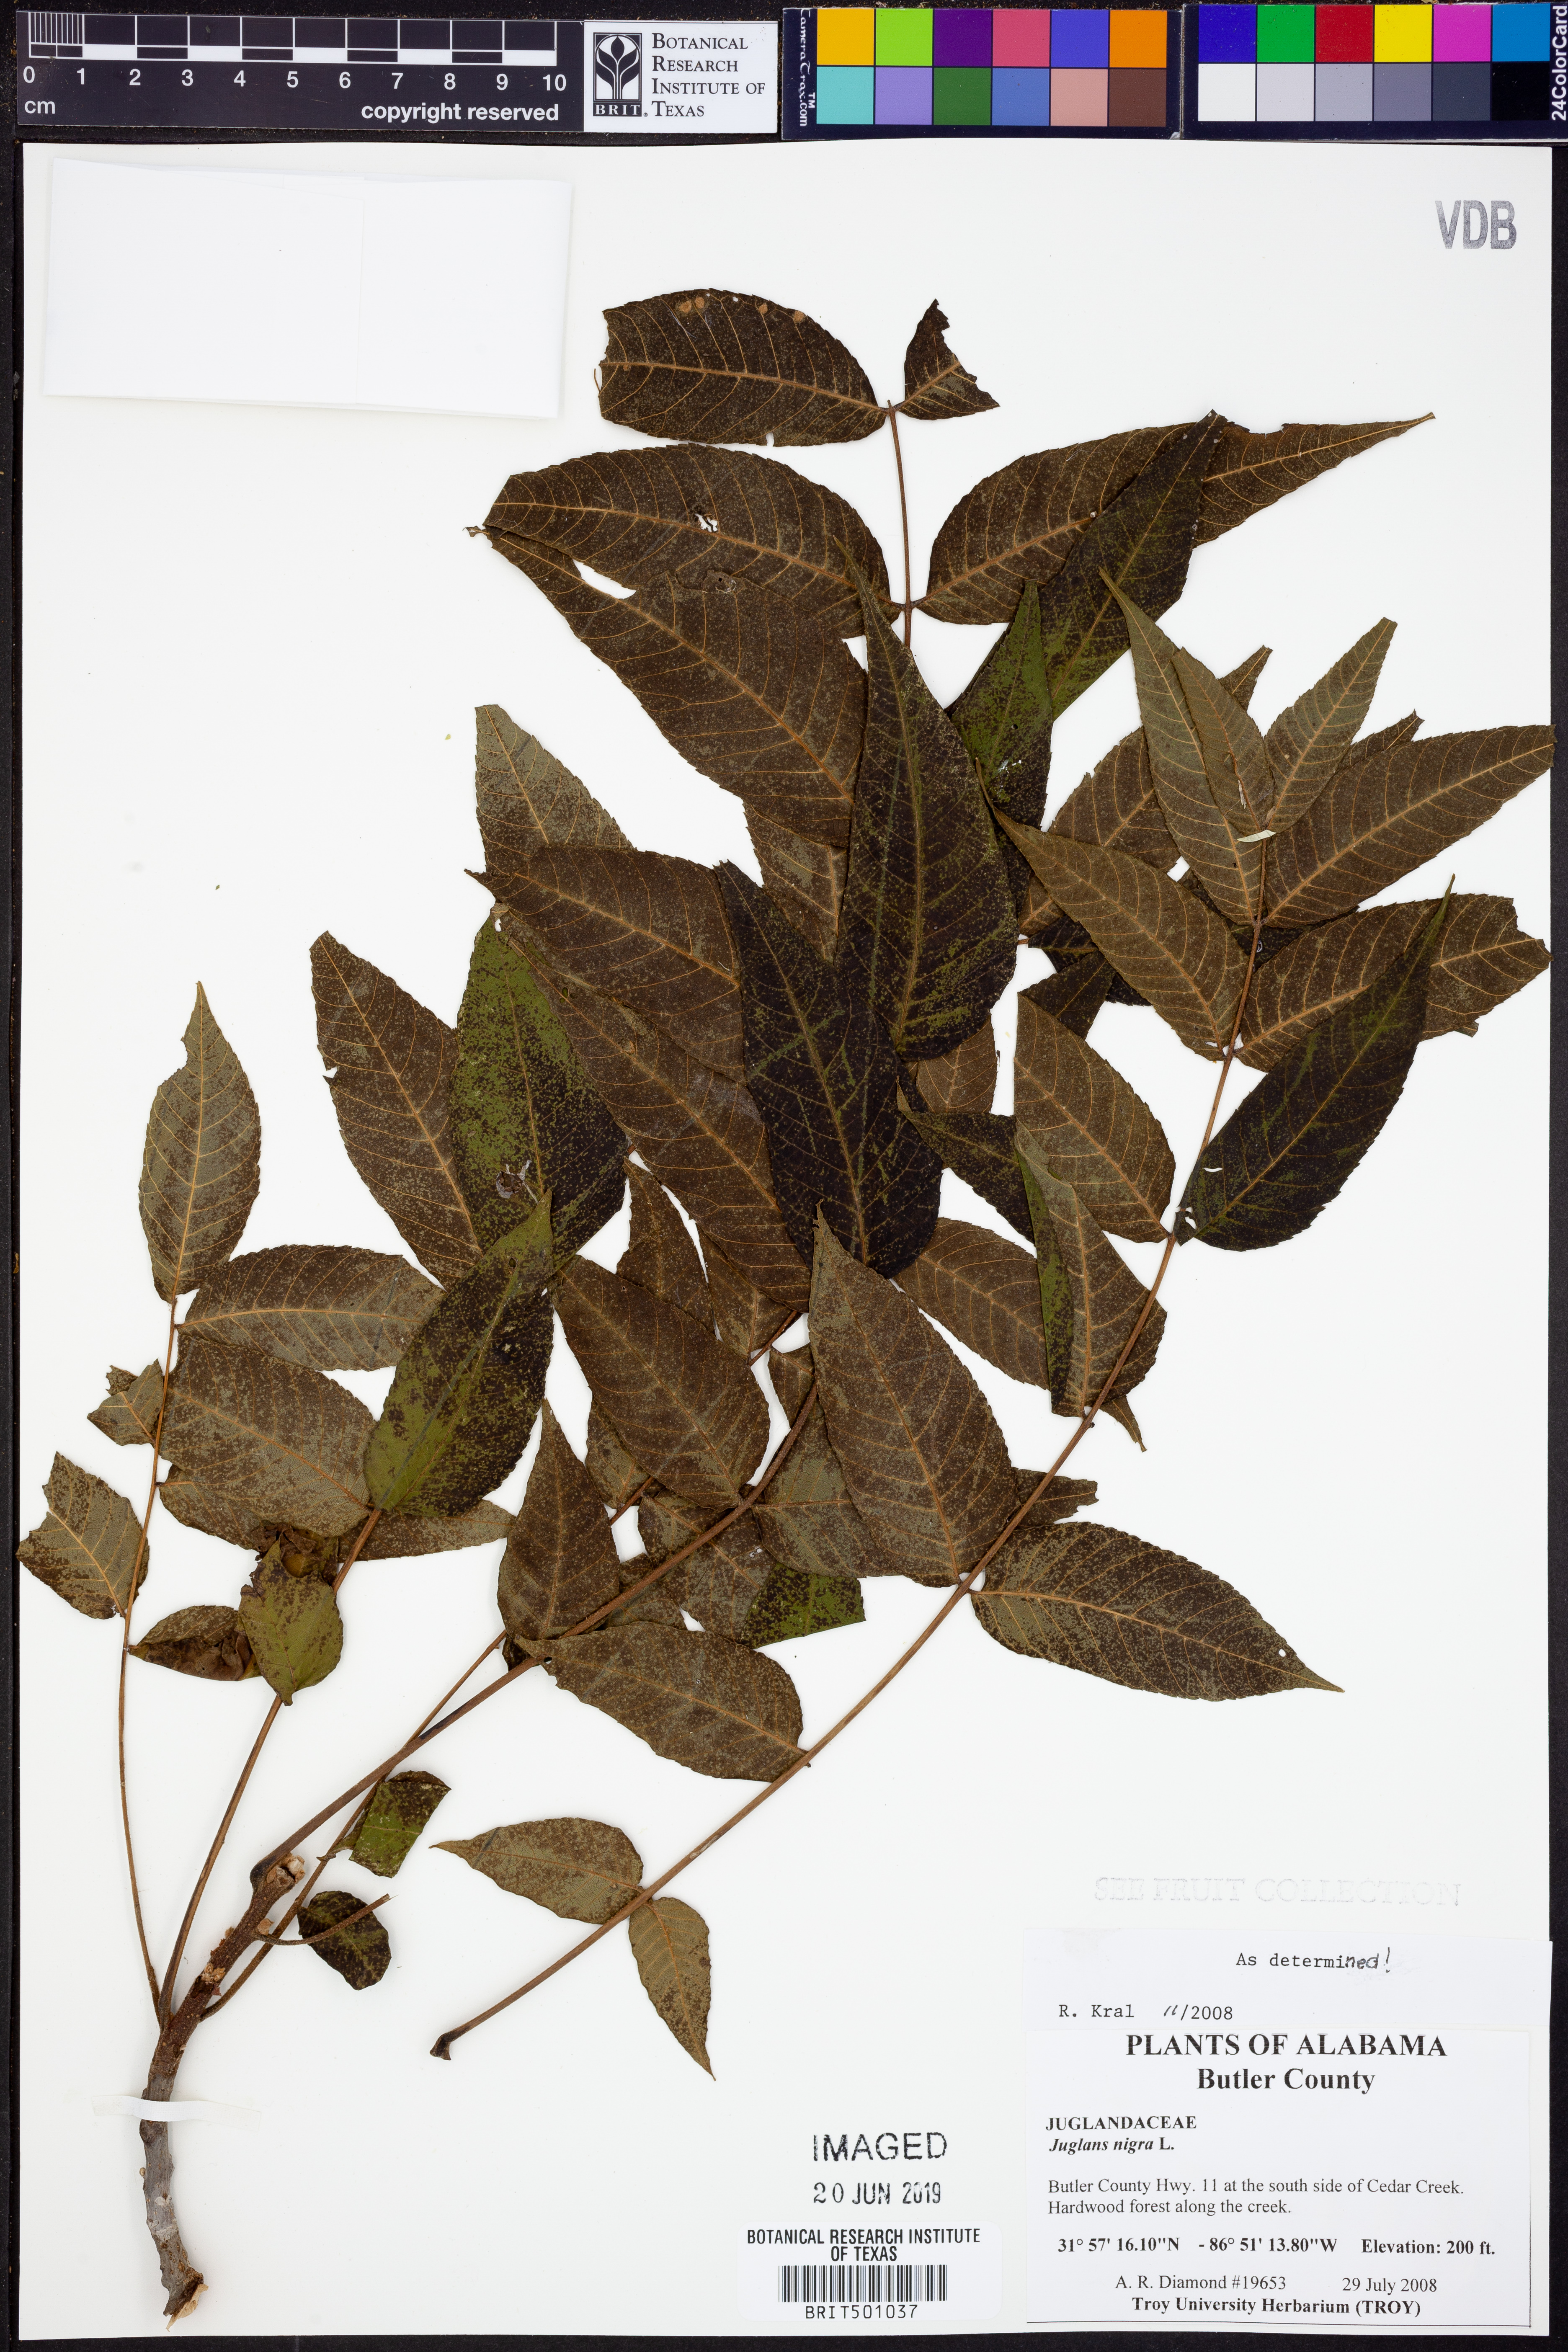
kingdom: Plantae
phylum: Tracheophyta
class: Magnoliopsida
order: Fagales
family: Juglandaceae
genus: Juglans
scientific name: Juglans nigra
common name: Black walnut
